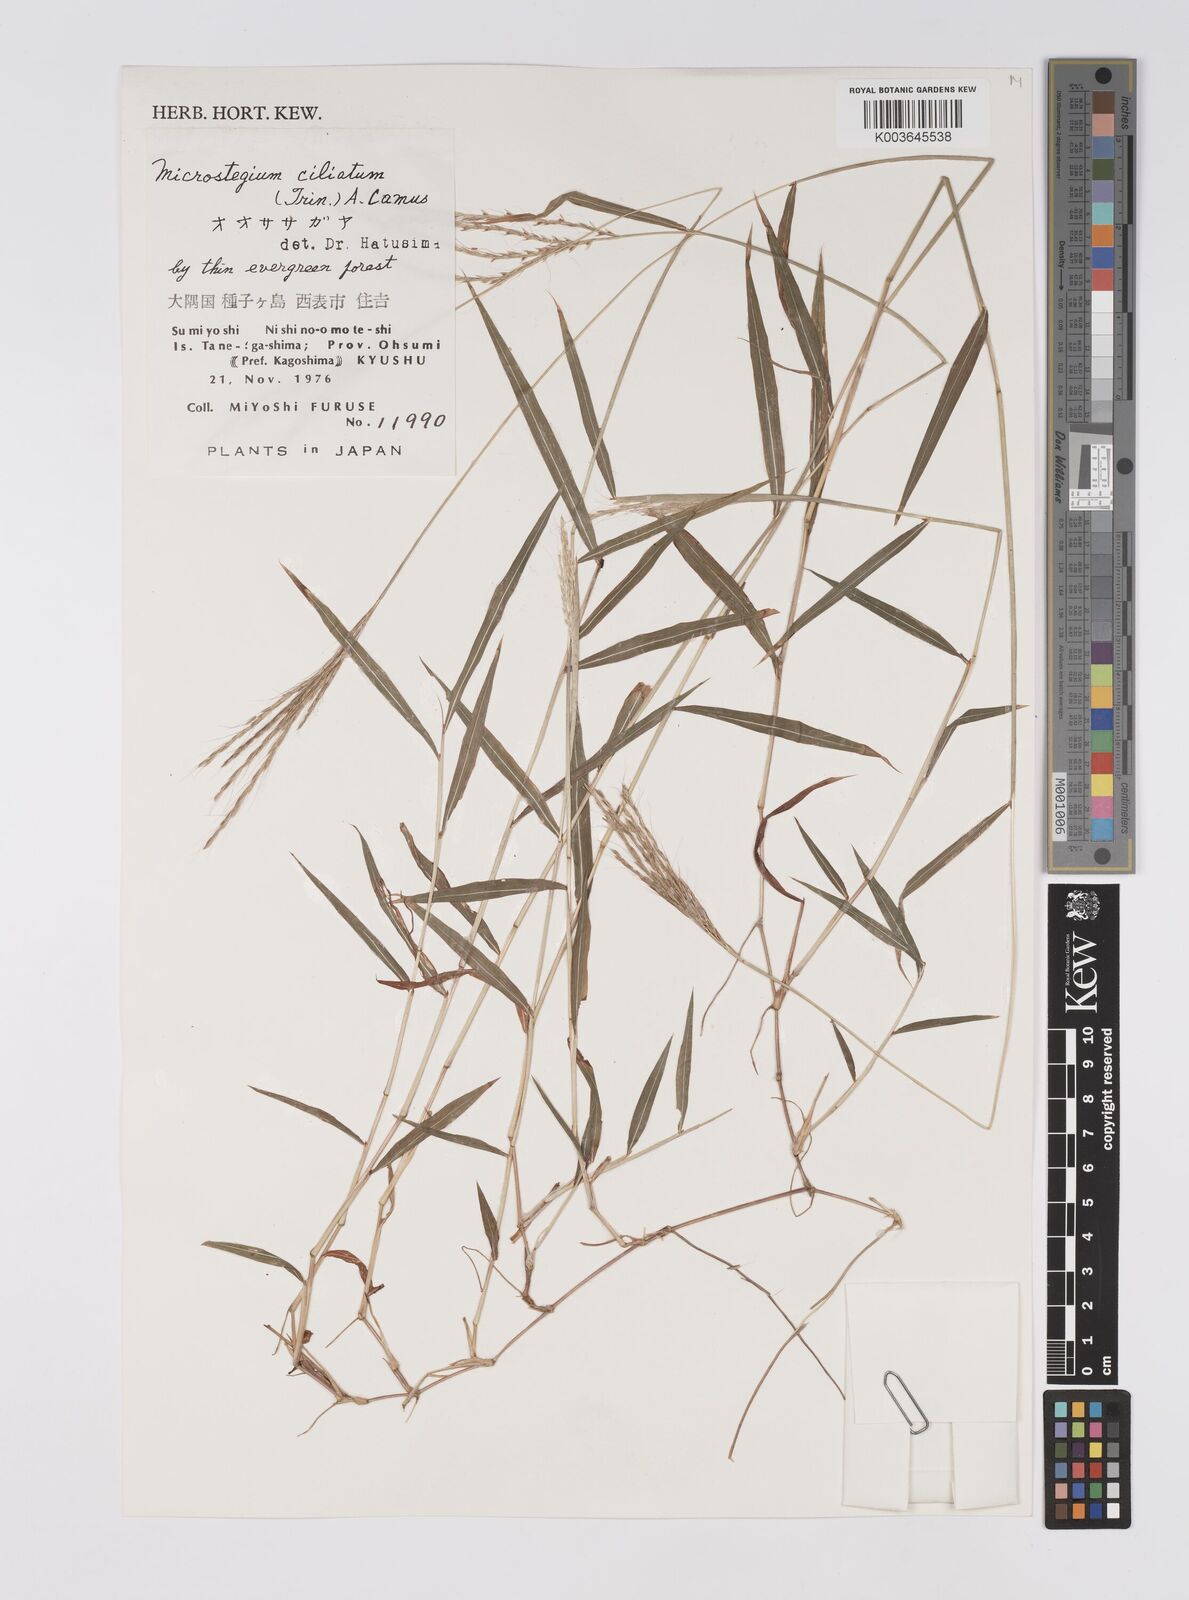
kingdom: Plantae
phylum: Tracheophyta
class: Liliopsida
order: Poales
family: Poaceae
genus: Microstegium
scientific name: Microstegium fasciculatum
